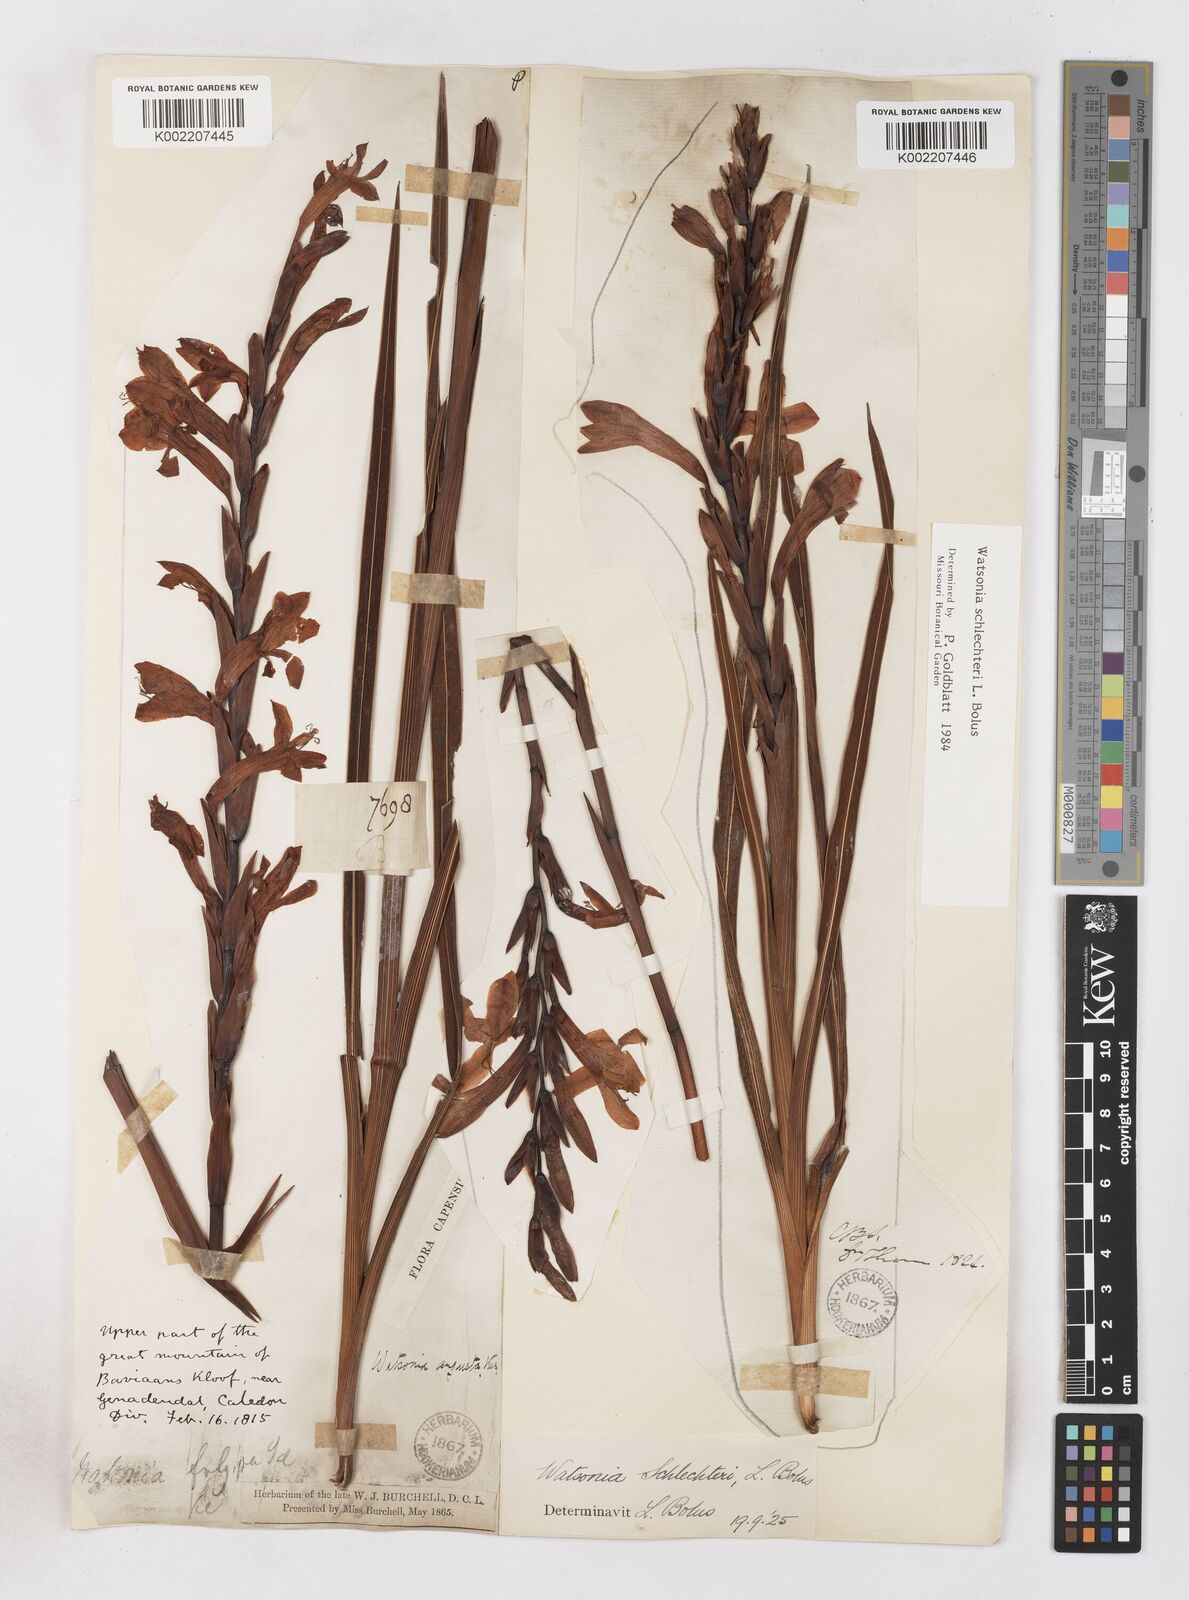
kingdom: Plantae
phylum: Tracheophyta
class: Liliopsida
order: Asparagales
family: Iridaceae
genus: Watsonia
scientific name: Watsonia schlechteri
